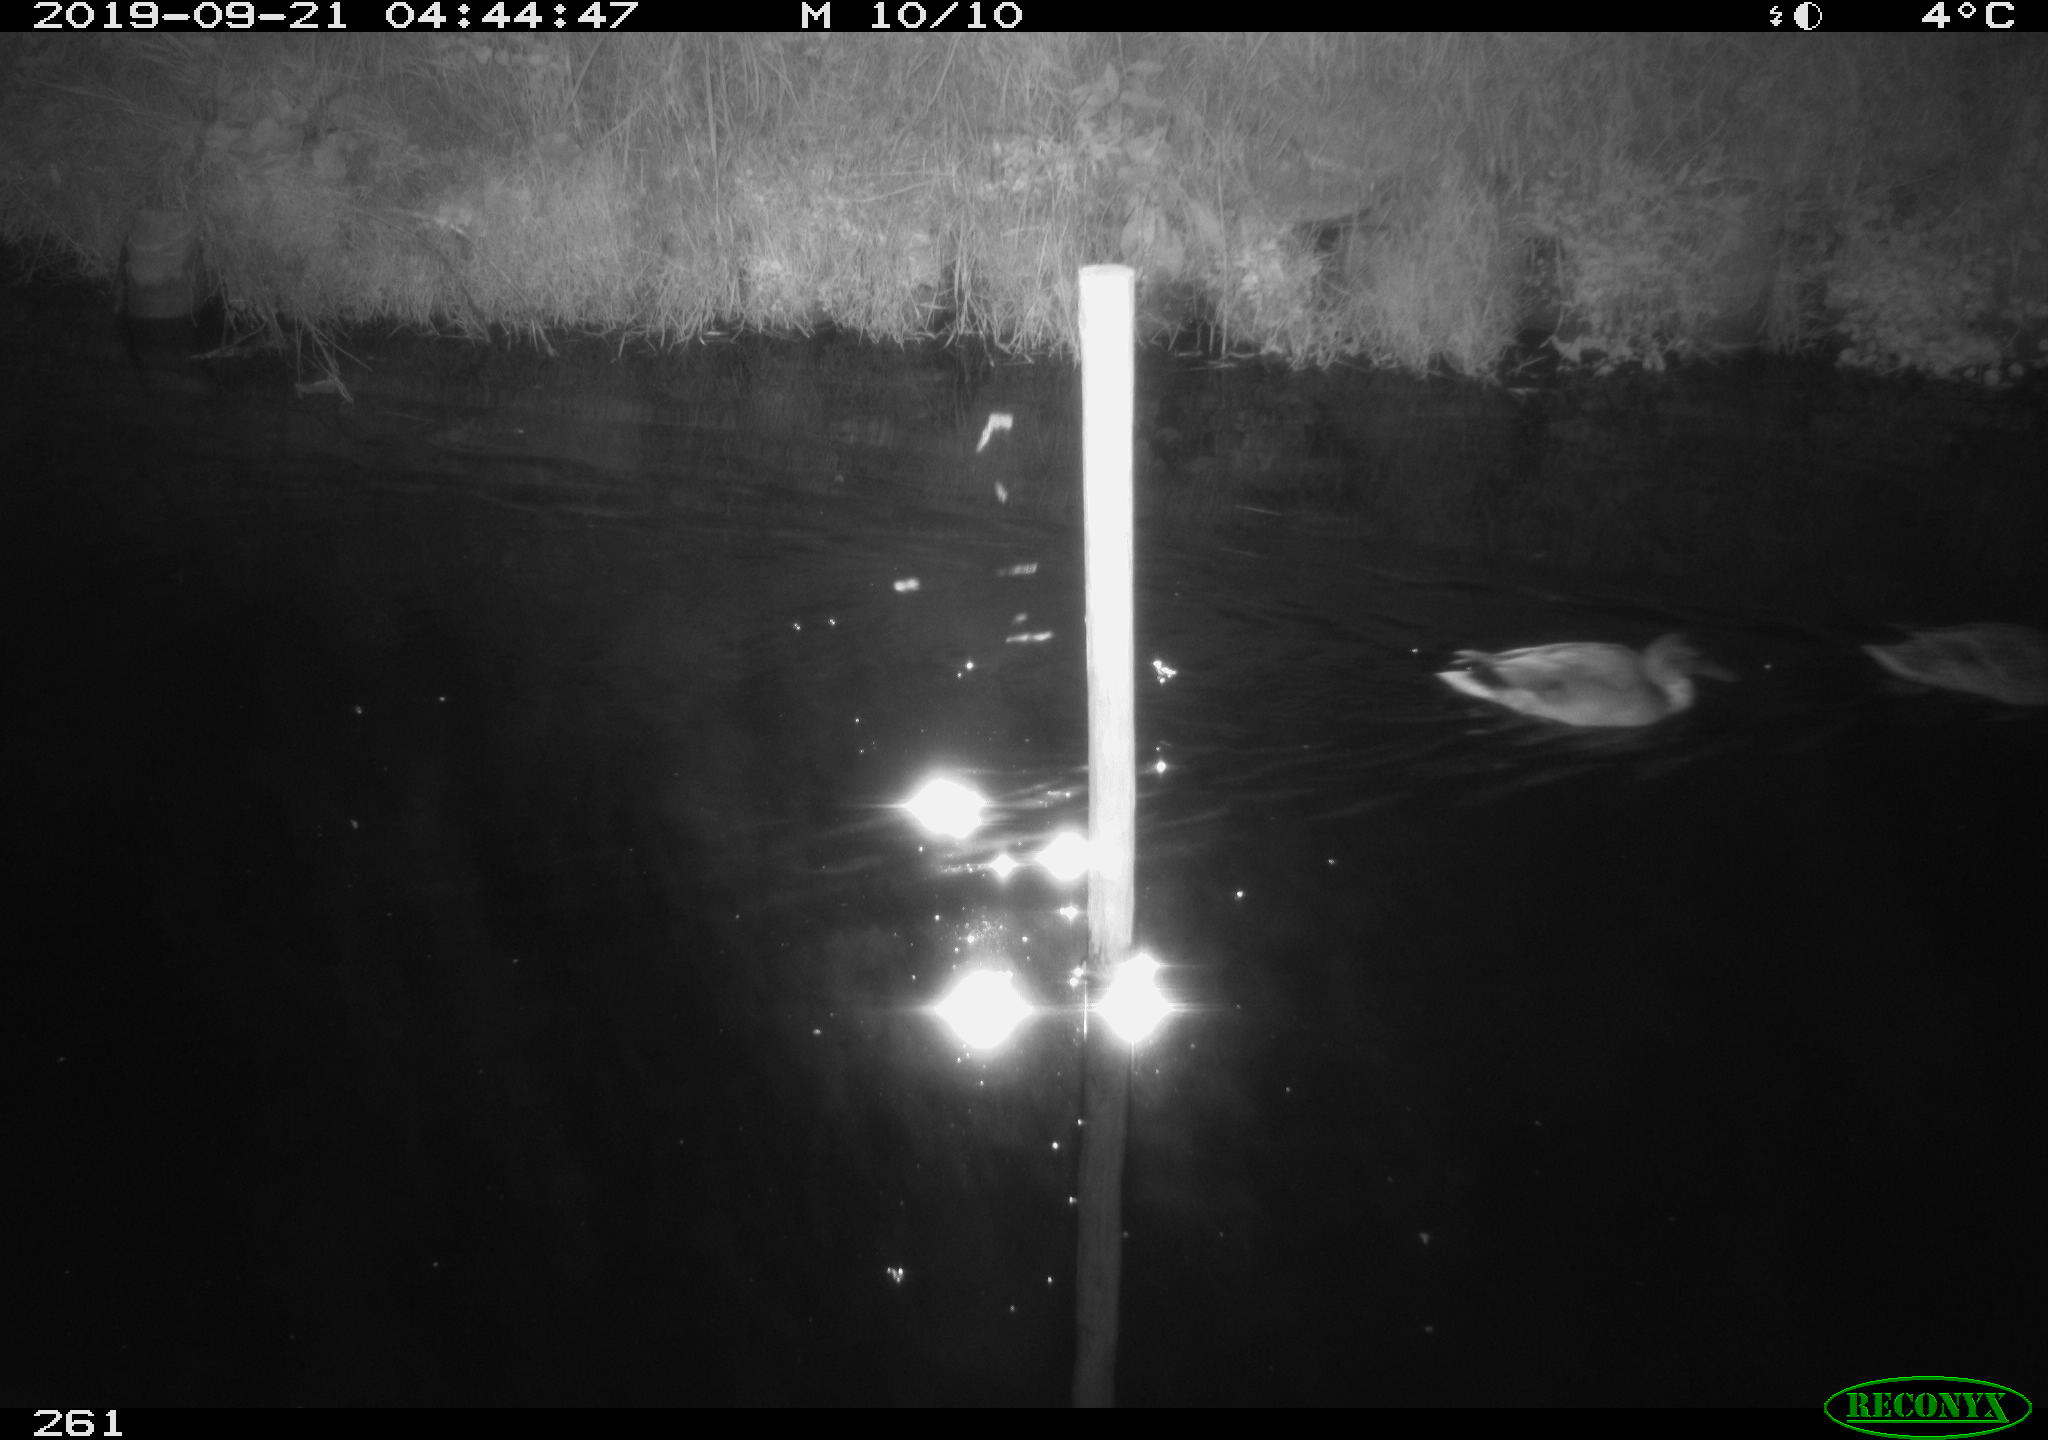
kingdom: Animalia
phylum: Chordata
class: Aves
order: Anseriformes
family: Anatidae
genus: Anas
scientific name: Anas platyrhynchos
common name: Mallard
